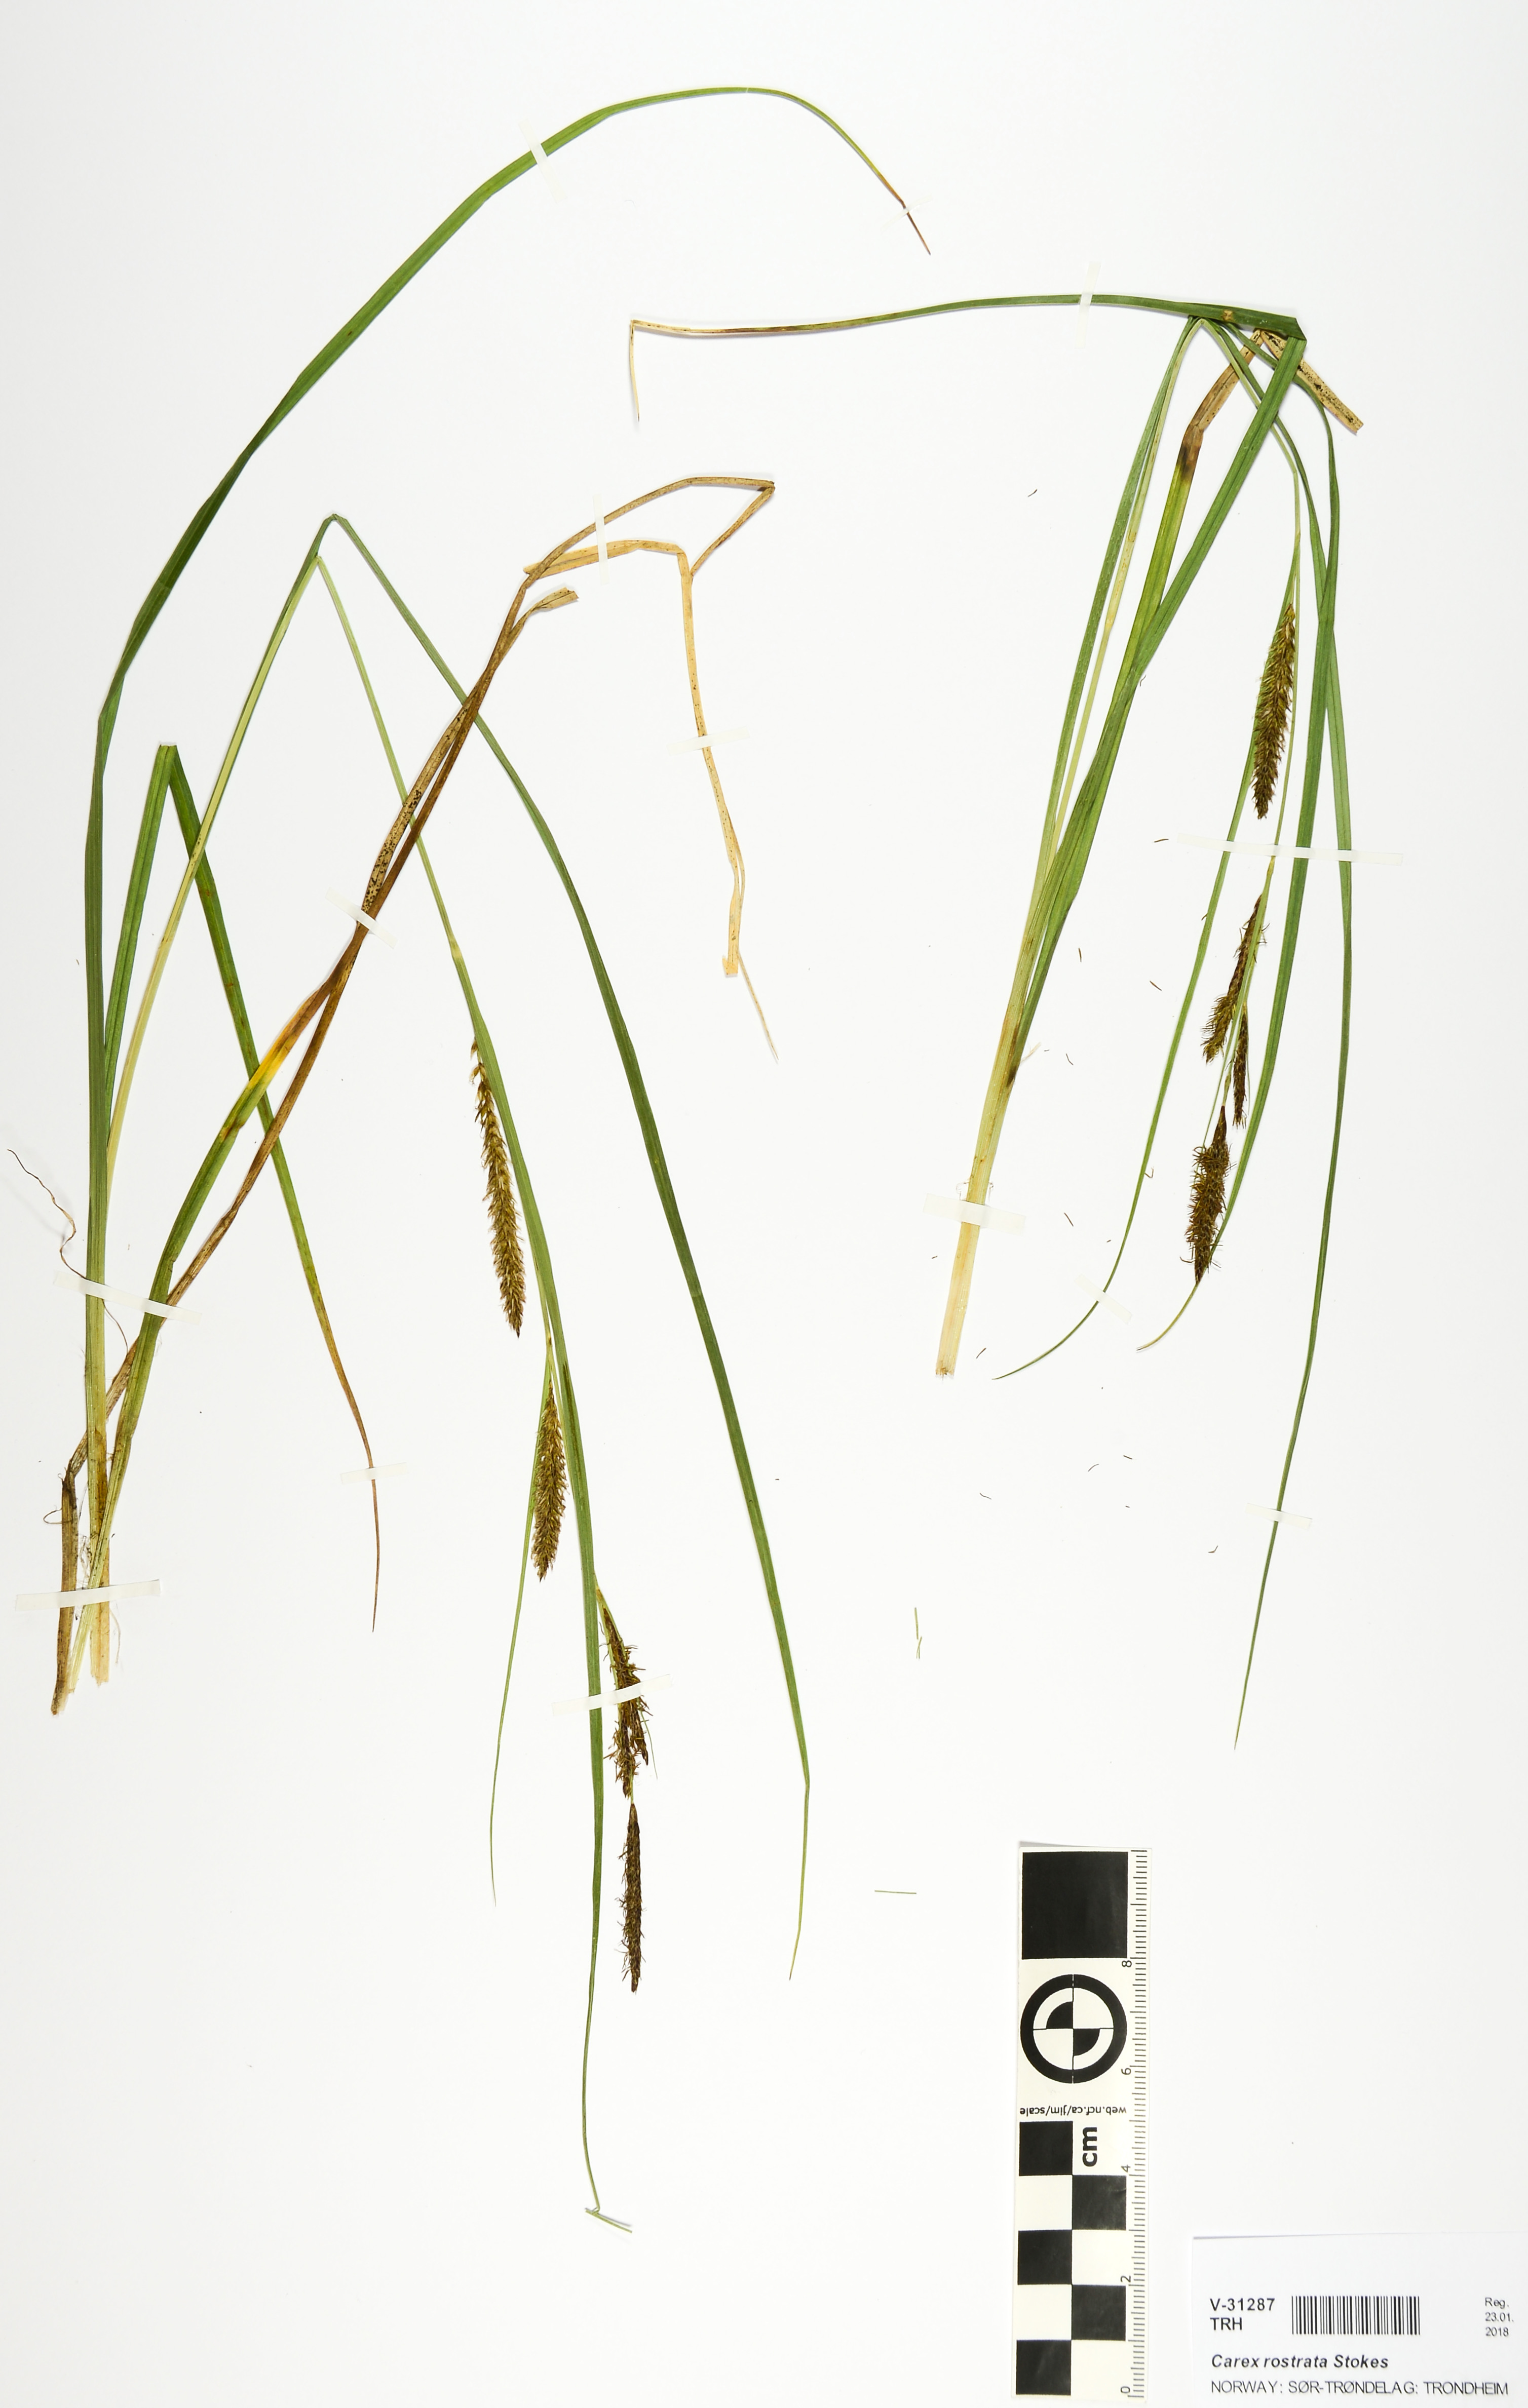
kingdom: Plantae
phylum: Tracheophyta
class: Liliopsida
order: Poales
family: Cyperaceae
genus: Carex
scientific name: Carex rostrata
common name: Bottle sedge
